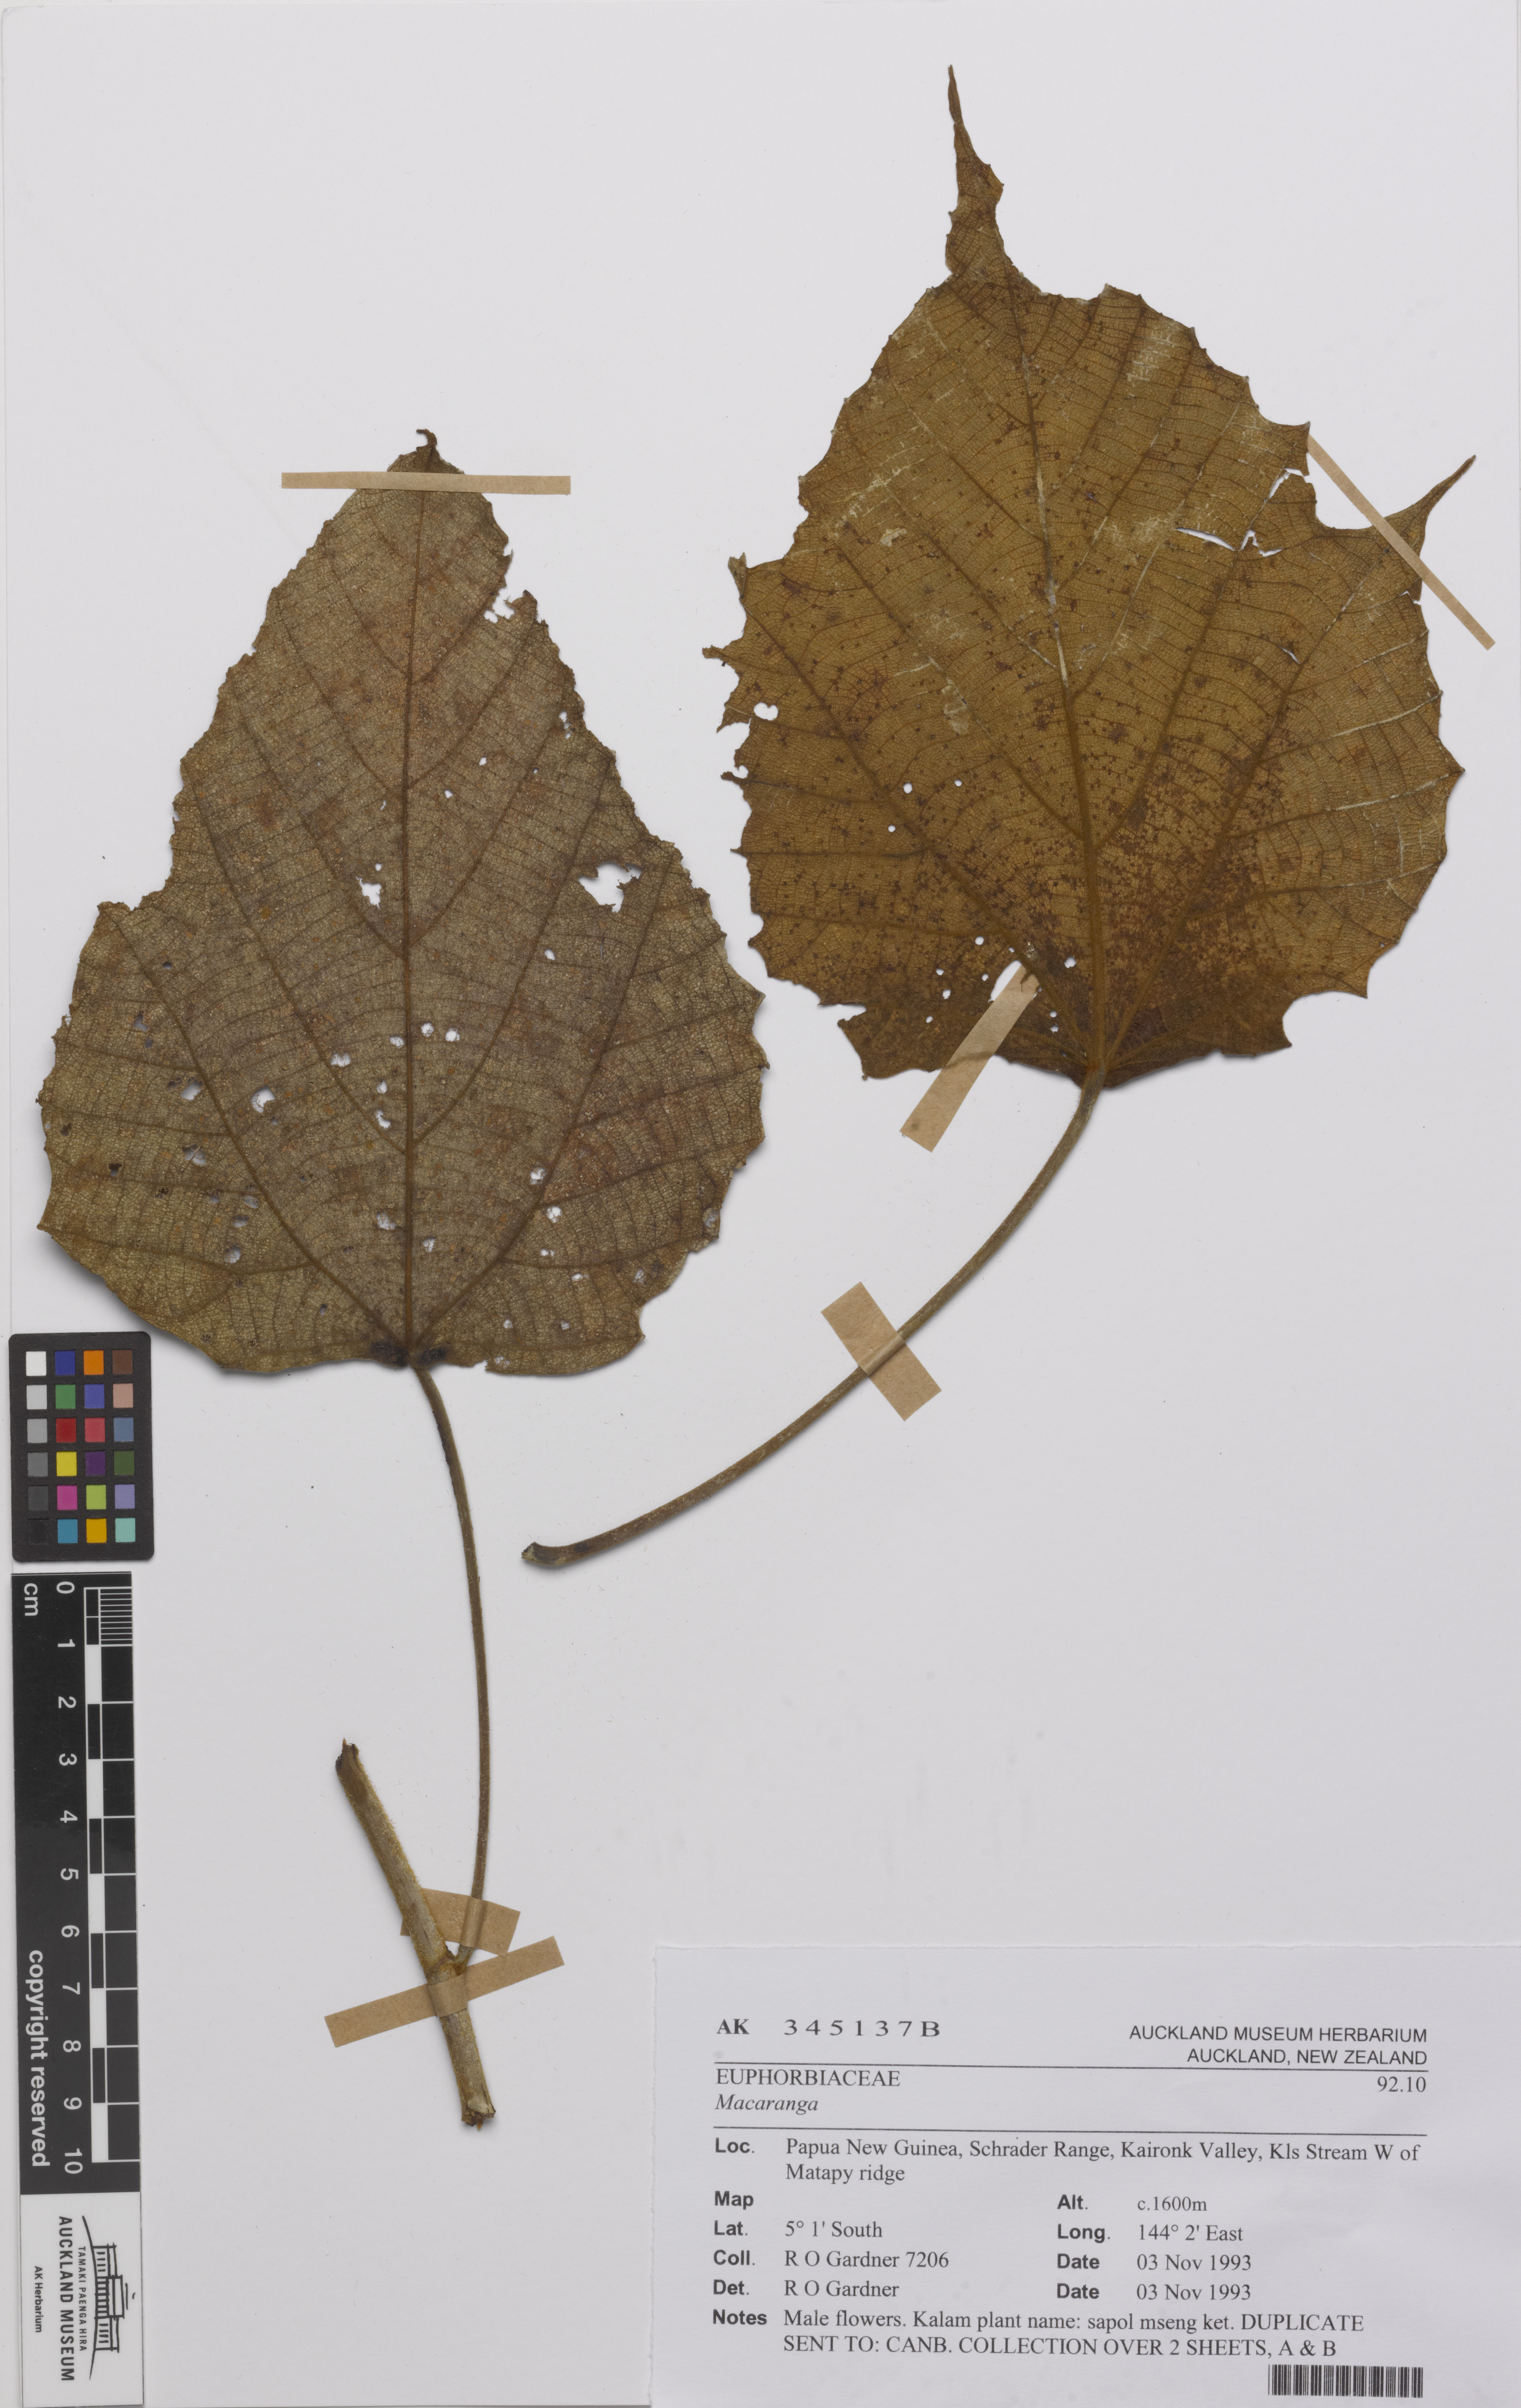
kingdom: Plantae
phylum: Tracheophyta
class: Magnoliopsida
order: Malpighiales
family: Euphorbiaceae
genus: Macaranga
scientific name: Macaranga
